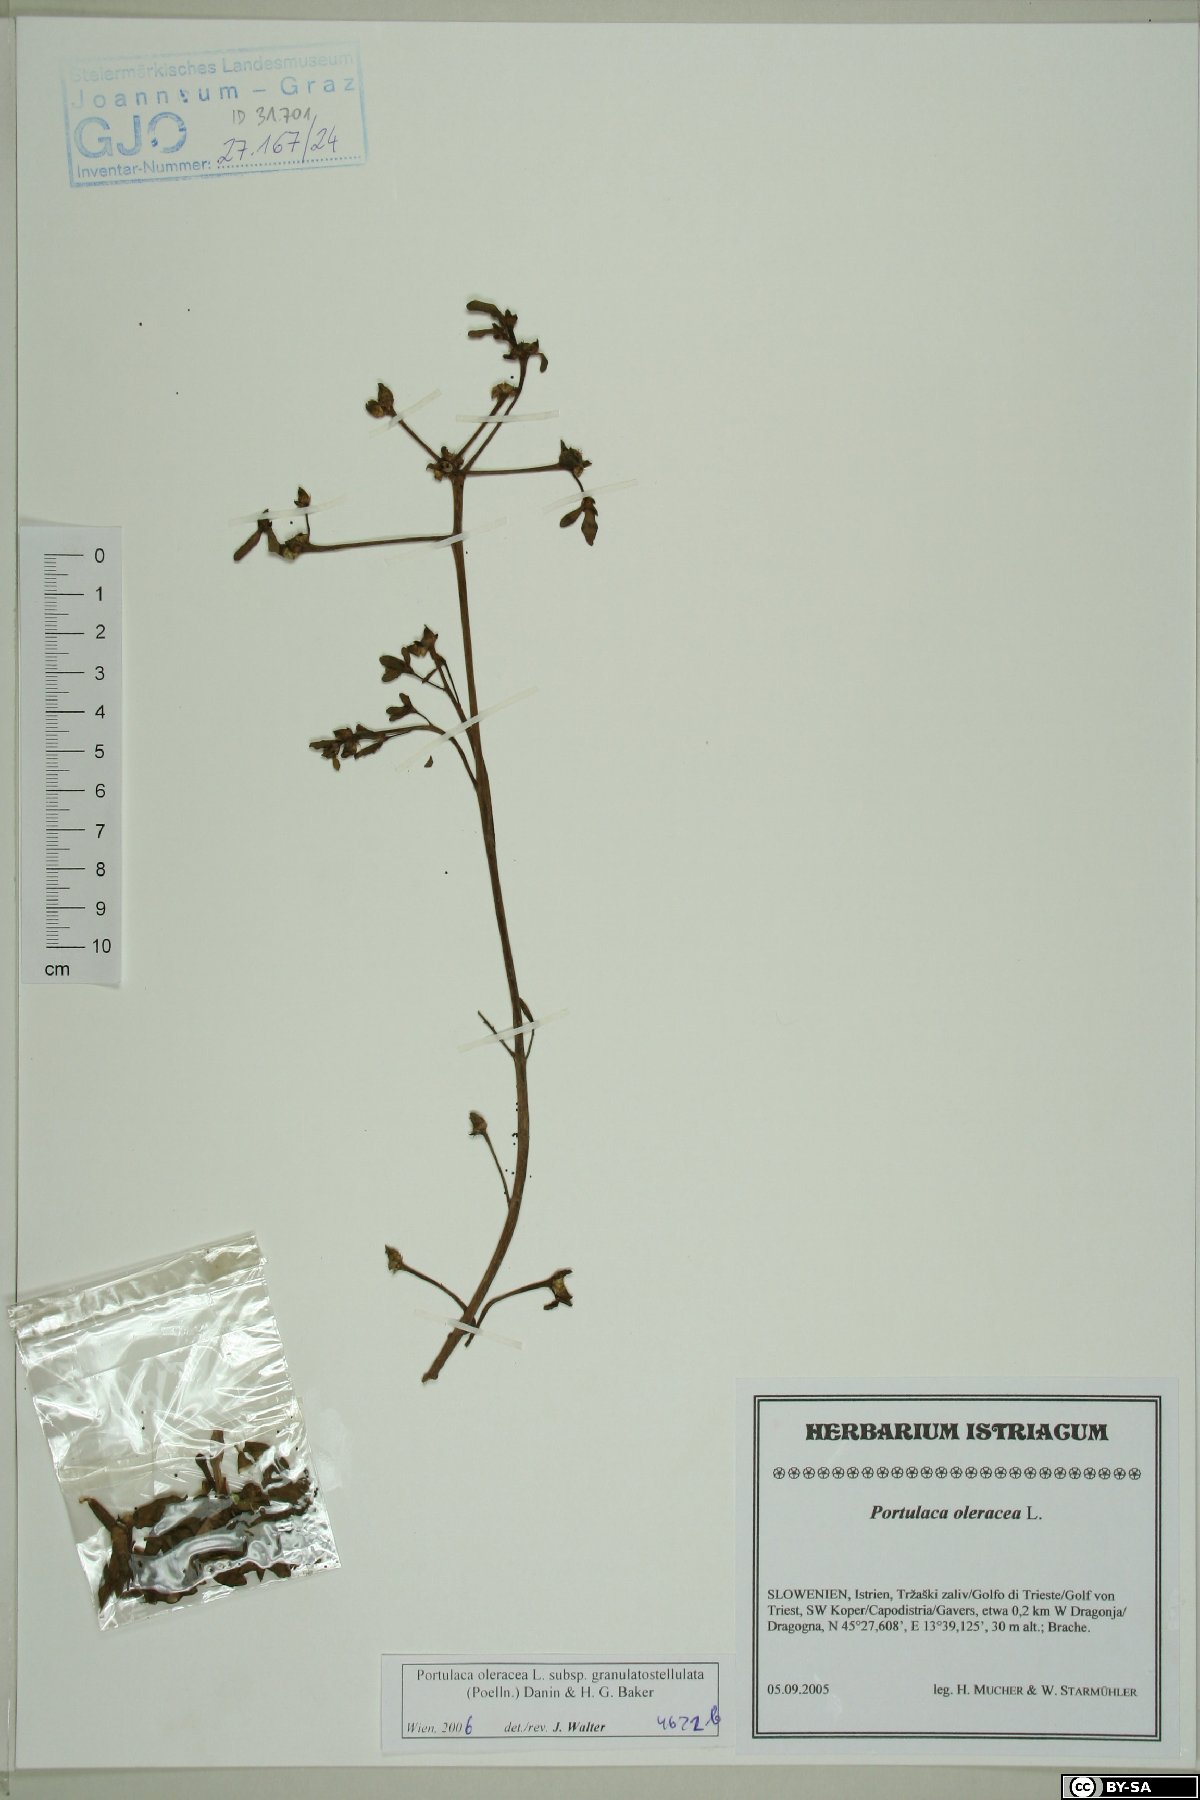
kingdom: Plantae
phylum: Tracheophyta
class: Magnoliopsida
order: Caryophyllales
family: Portulacaceae
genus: Portulaca
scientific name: Portulaca granulatostellulata
